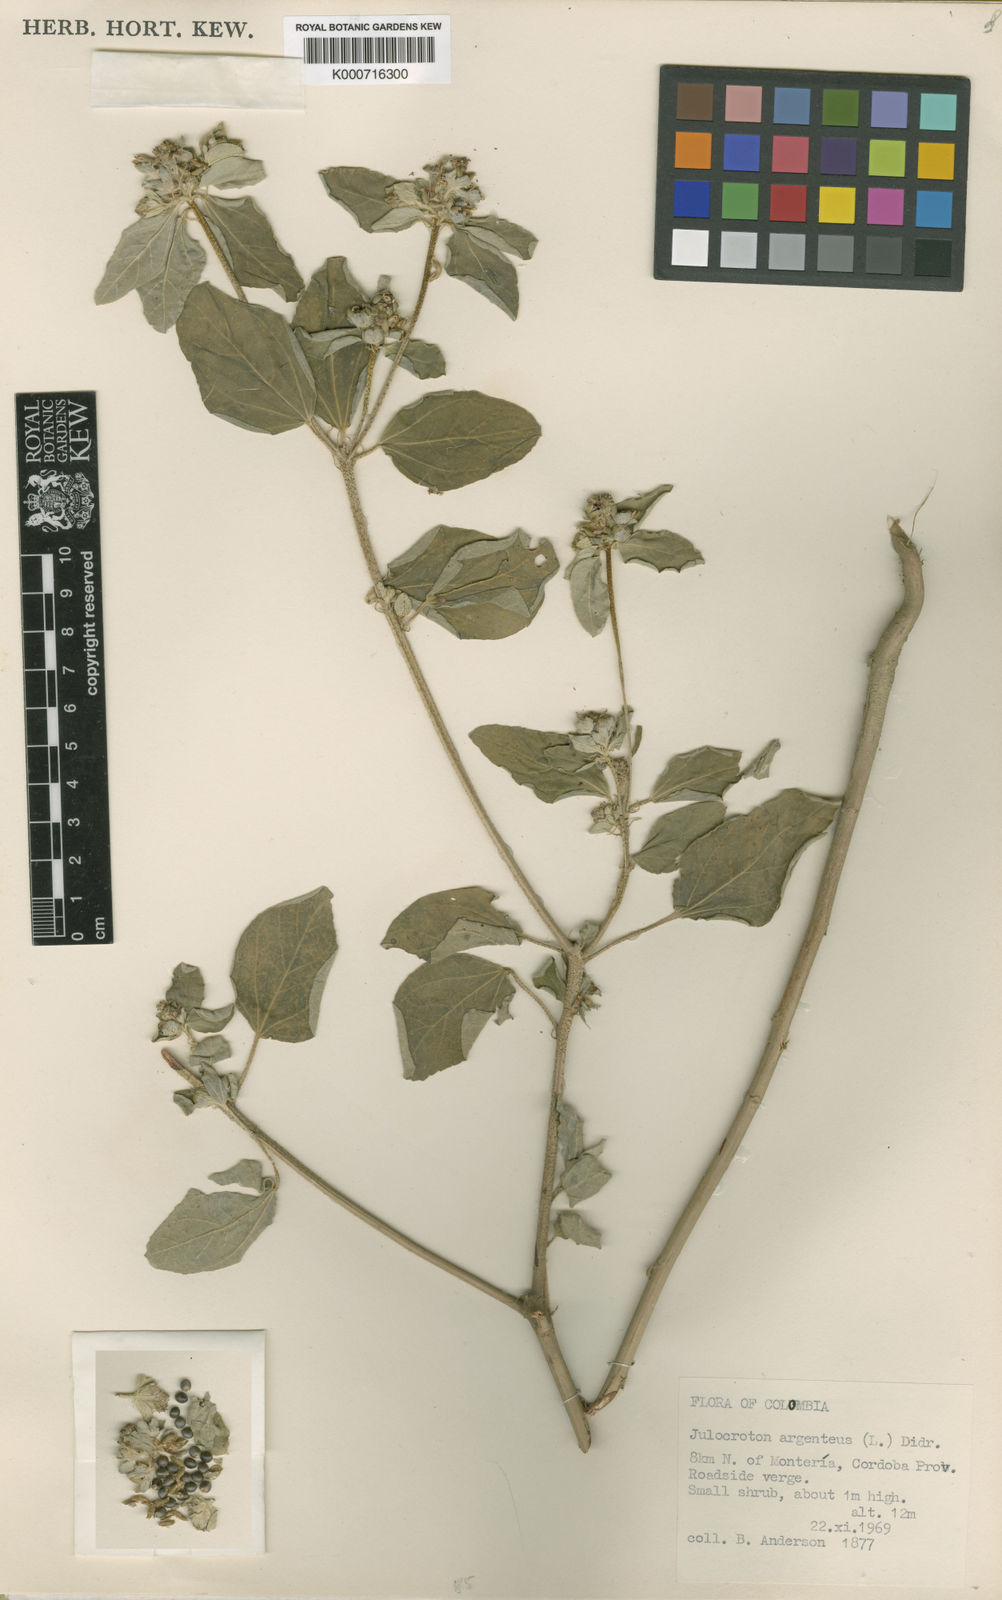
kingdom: Plantae
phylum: Tracheophyta
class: Magnoliopsida
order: Malpighiales
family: Euphorbiaceae
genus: Croton
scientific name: Croton argenteus
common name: Silver july croton
